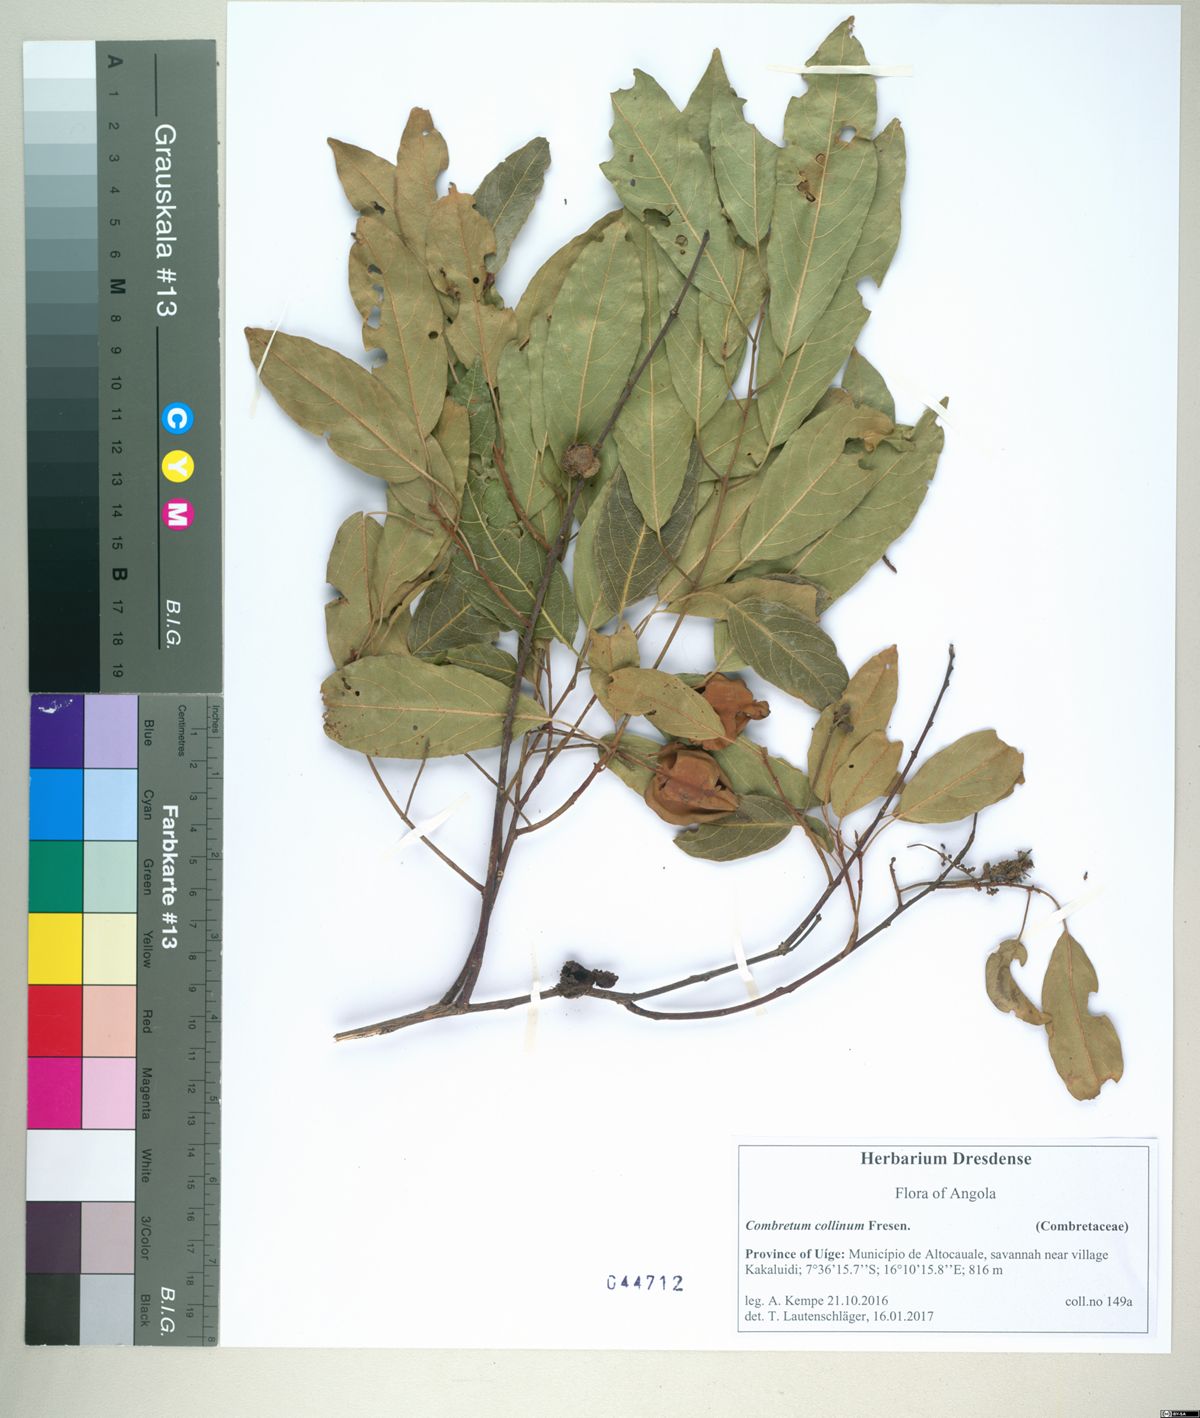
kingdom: Plantae
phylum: Tracheophyta
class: Magnoliopsida
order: Myrtales
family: Combretaceae
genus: Combretum
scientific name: Combretum collinum
